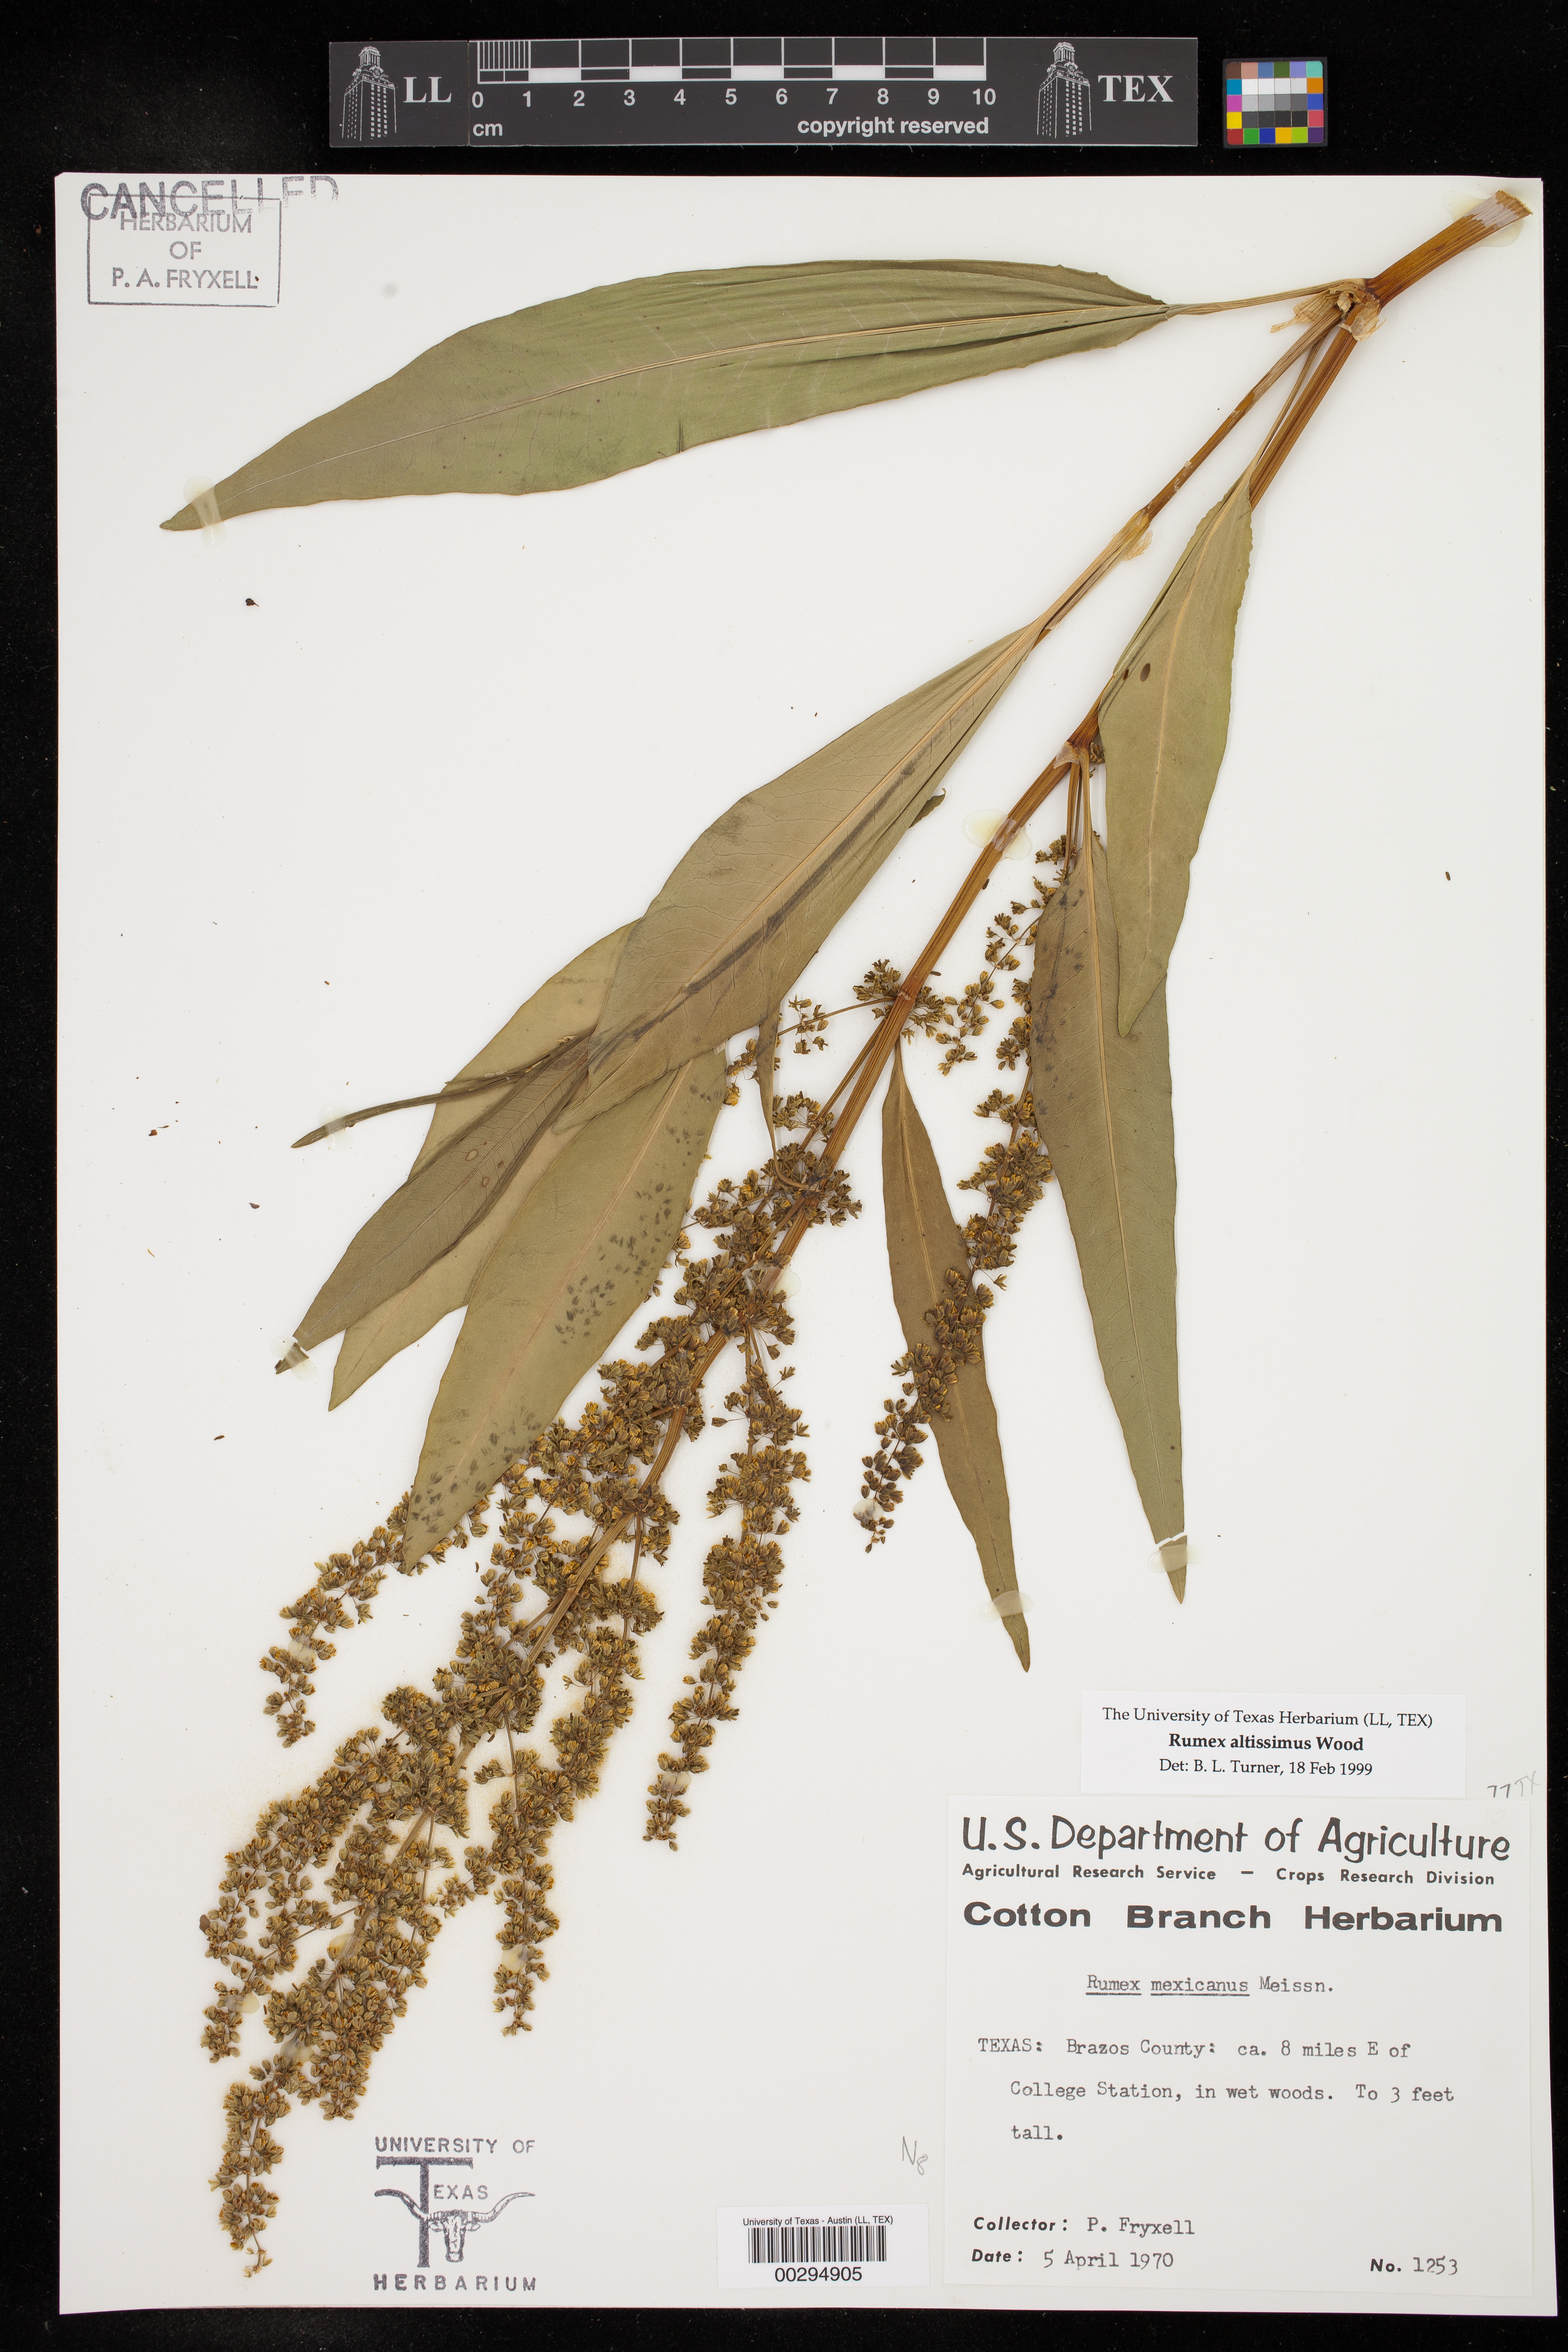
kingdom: Plantae
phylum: Tracheophyta
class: Magnoliopsida
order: Caryophyllales
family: Polygonaceae
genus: Rumex
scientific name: Rumex altissimus
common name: Smooth dock
